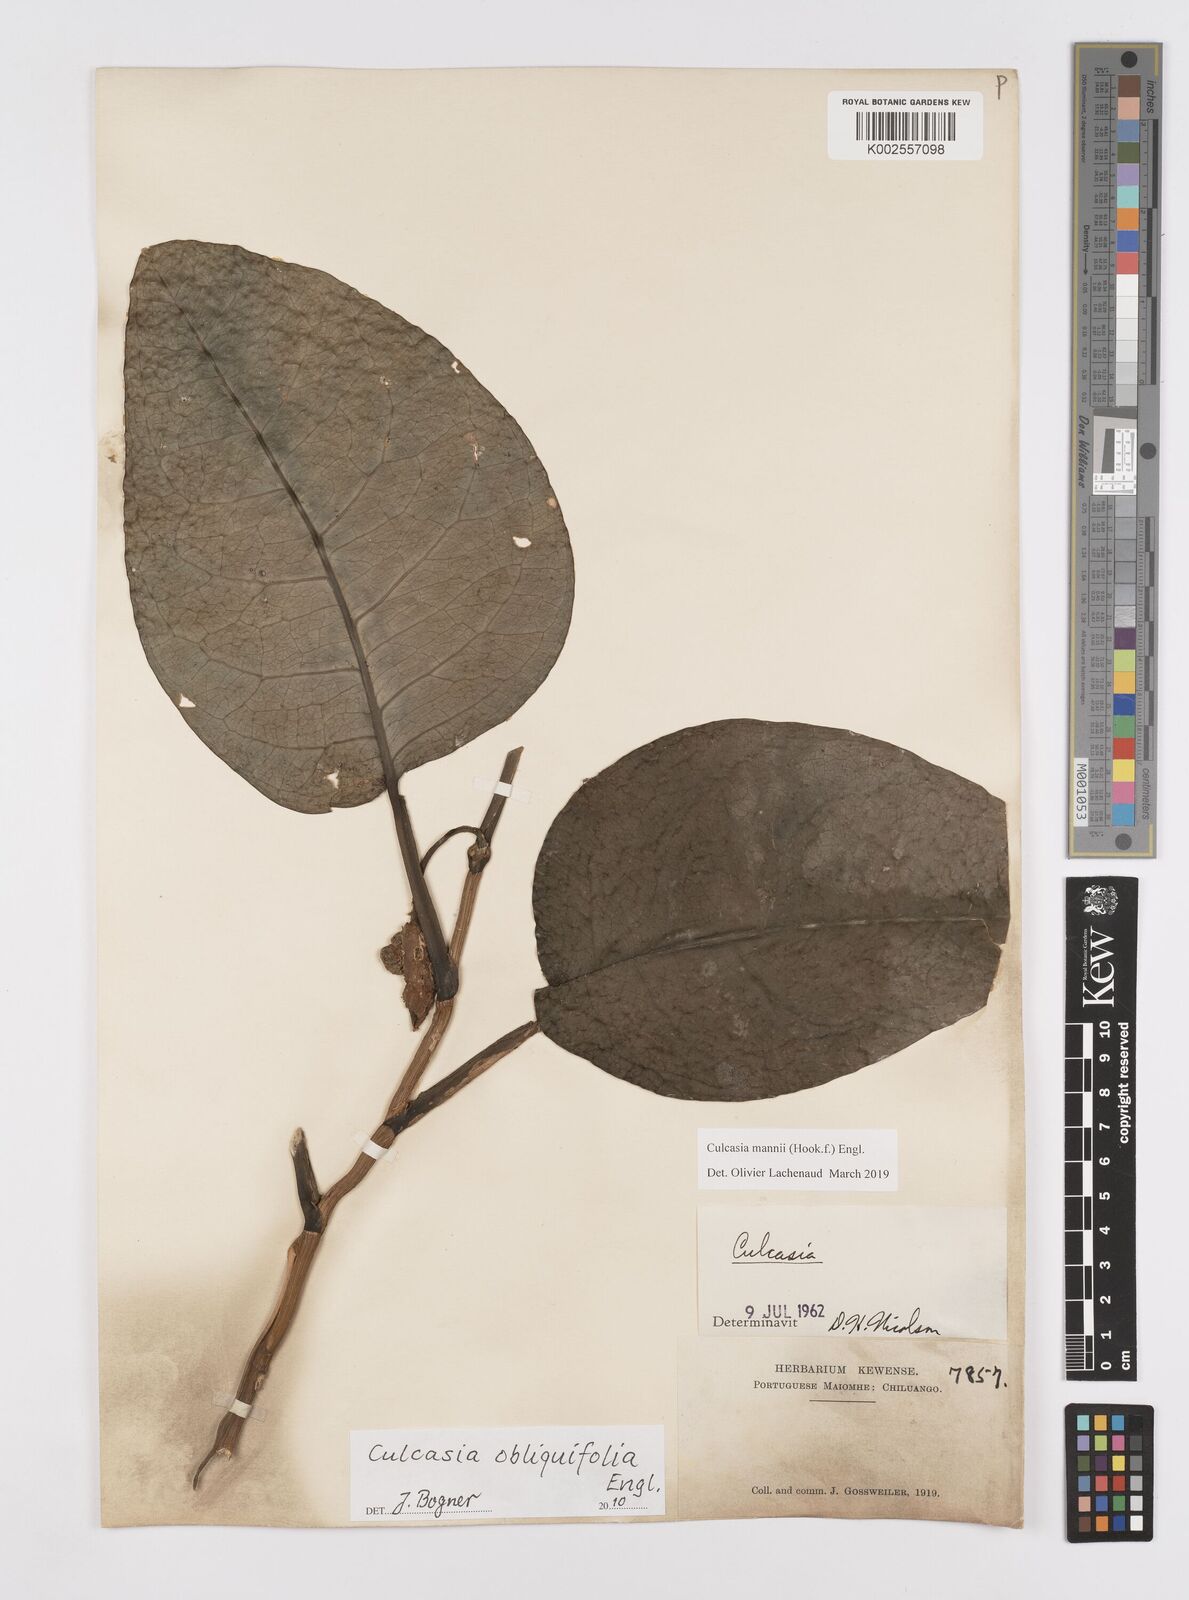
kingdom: Plantae
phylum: Tracheophyta
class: Liliopsida
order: Alismatales
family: Araceae
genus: Culcasia
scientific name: Culcasia mannii
